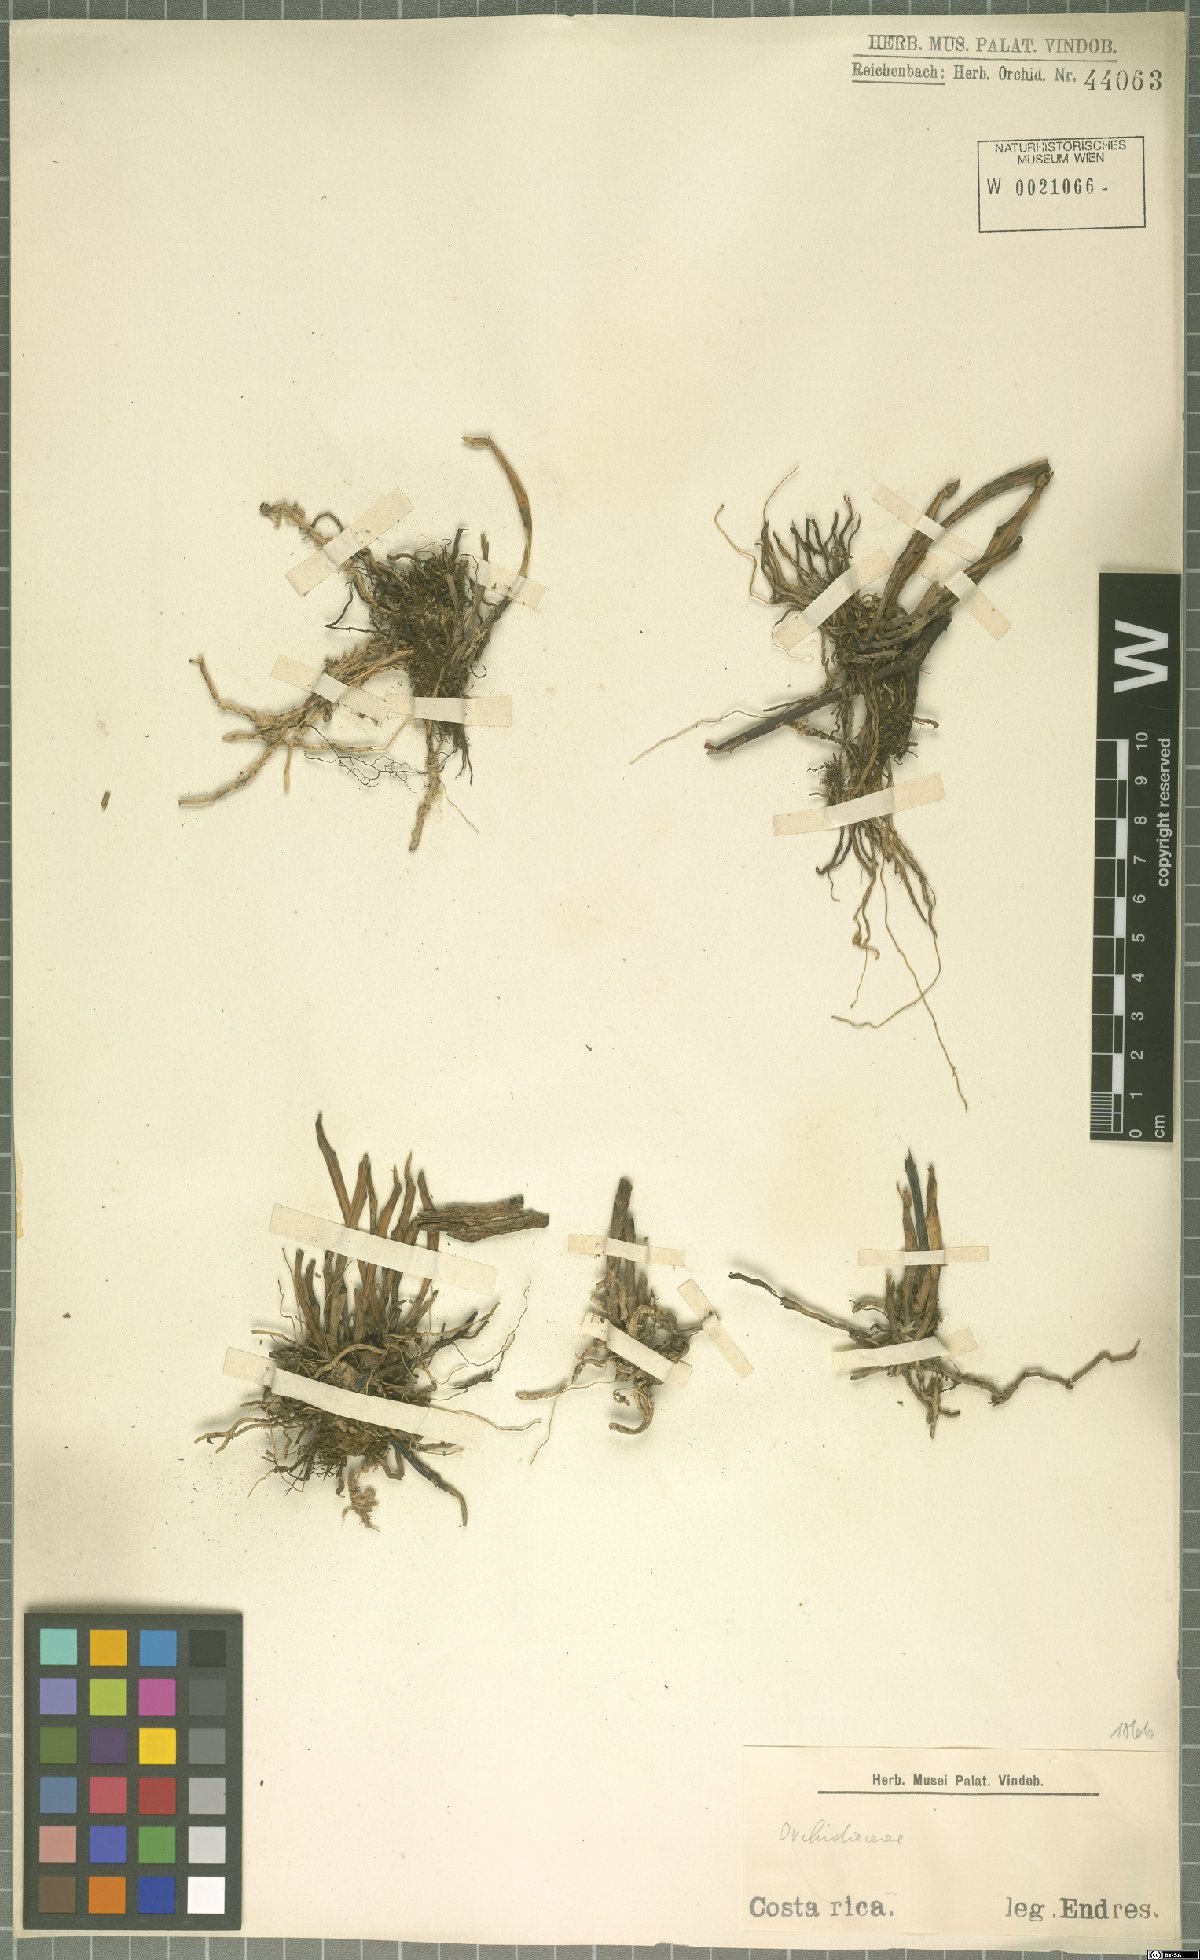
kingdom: Plantae
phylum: Tracheophyta
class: Liliopsida
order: Asparagales
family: Orchidaceae
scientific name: Orchidaceae
